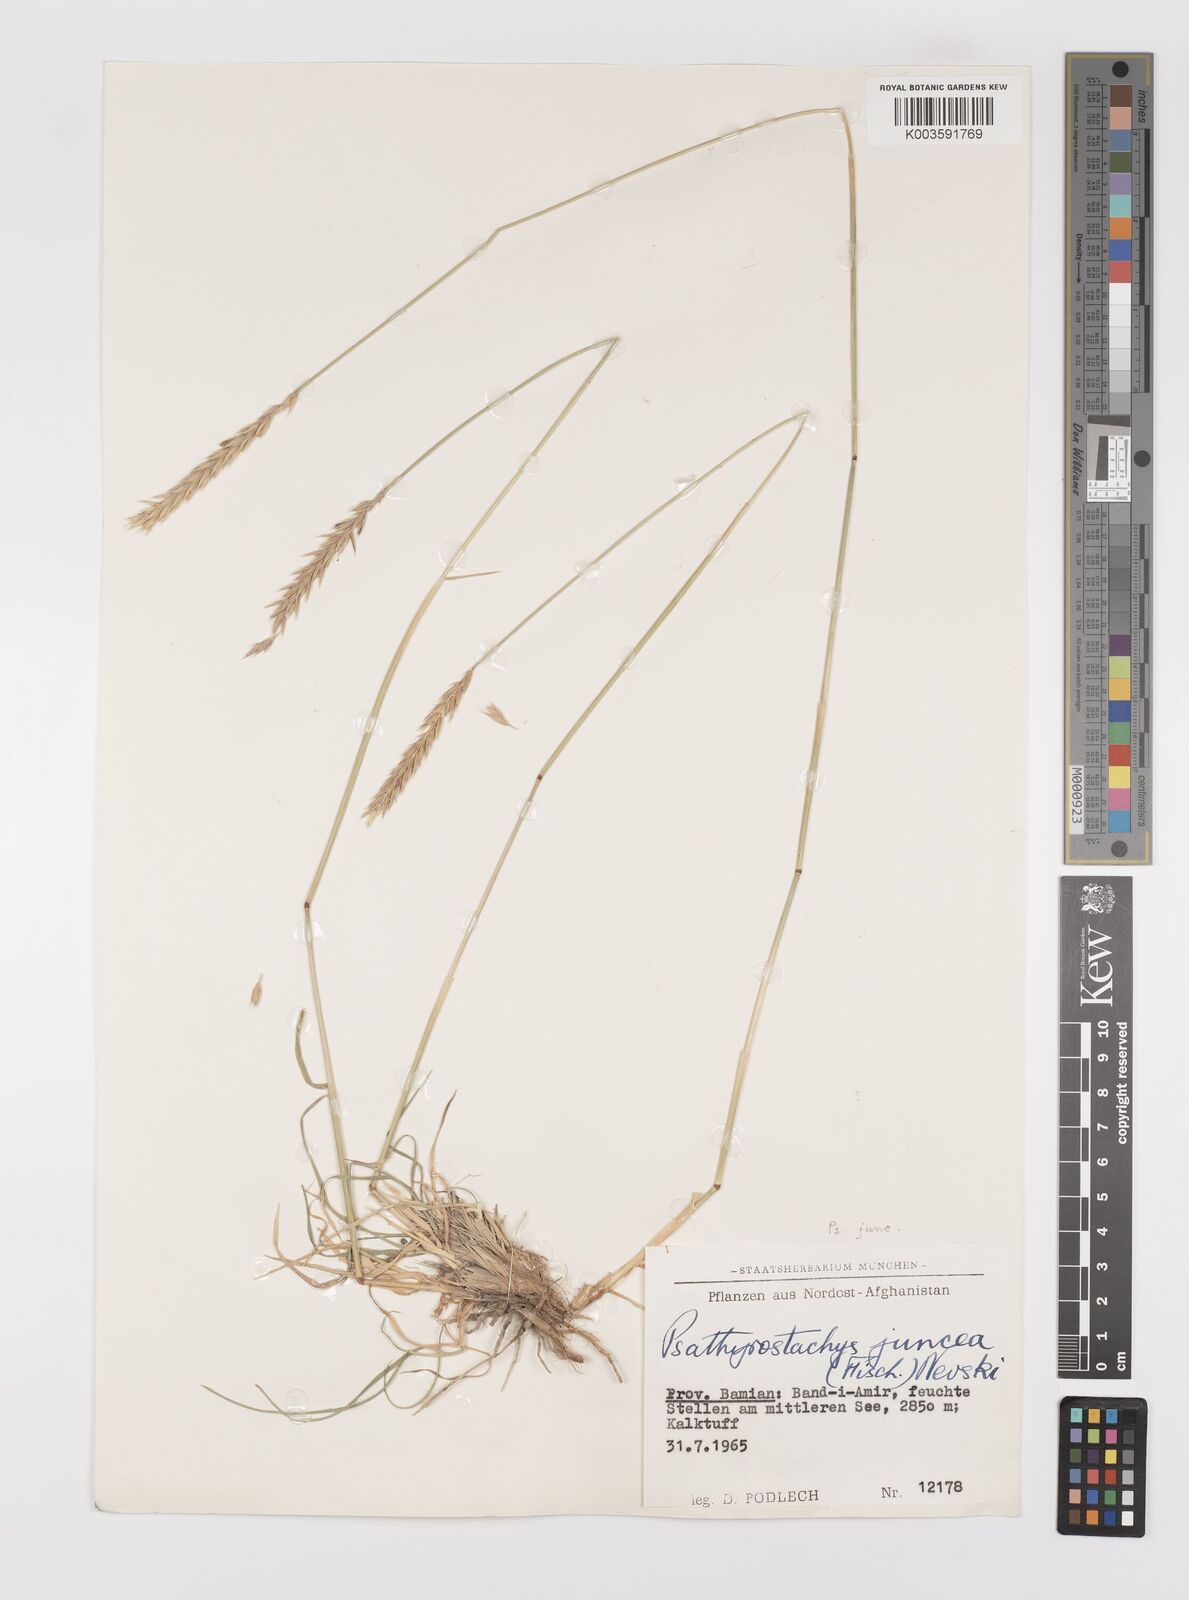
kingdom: Plantae
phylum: Tracheophyta
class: Liliopsida
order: Poales
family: Poaceae
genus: Psathyrostachys
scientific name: Psathyrostachys juncea
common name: Russian wildrye
